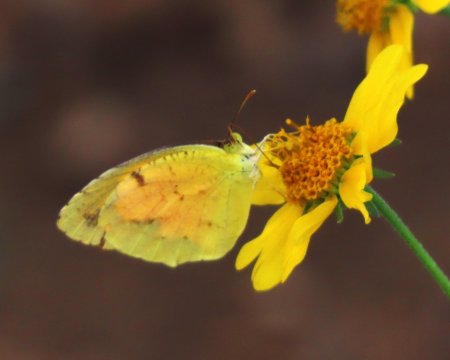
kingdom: Animalia
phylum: Arthropoda
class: Insecta
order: Lepidoptera
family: Pieridae
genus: Abaeis
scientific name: Abaeis nicippe
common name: Sleepy Orange
